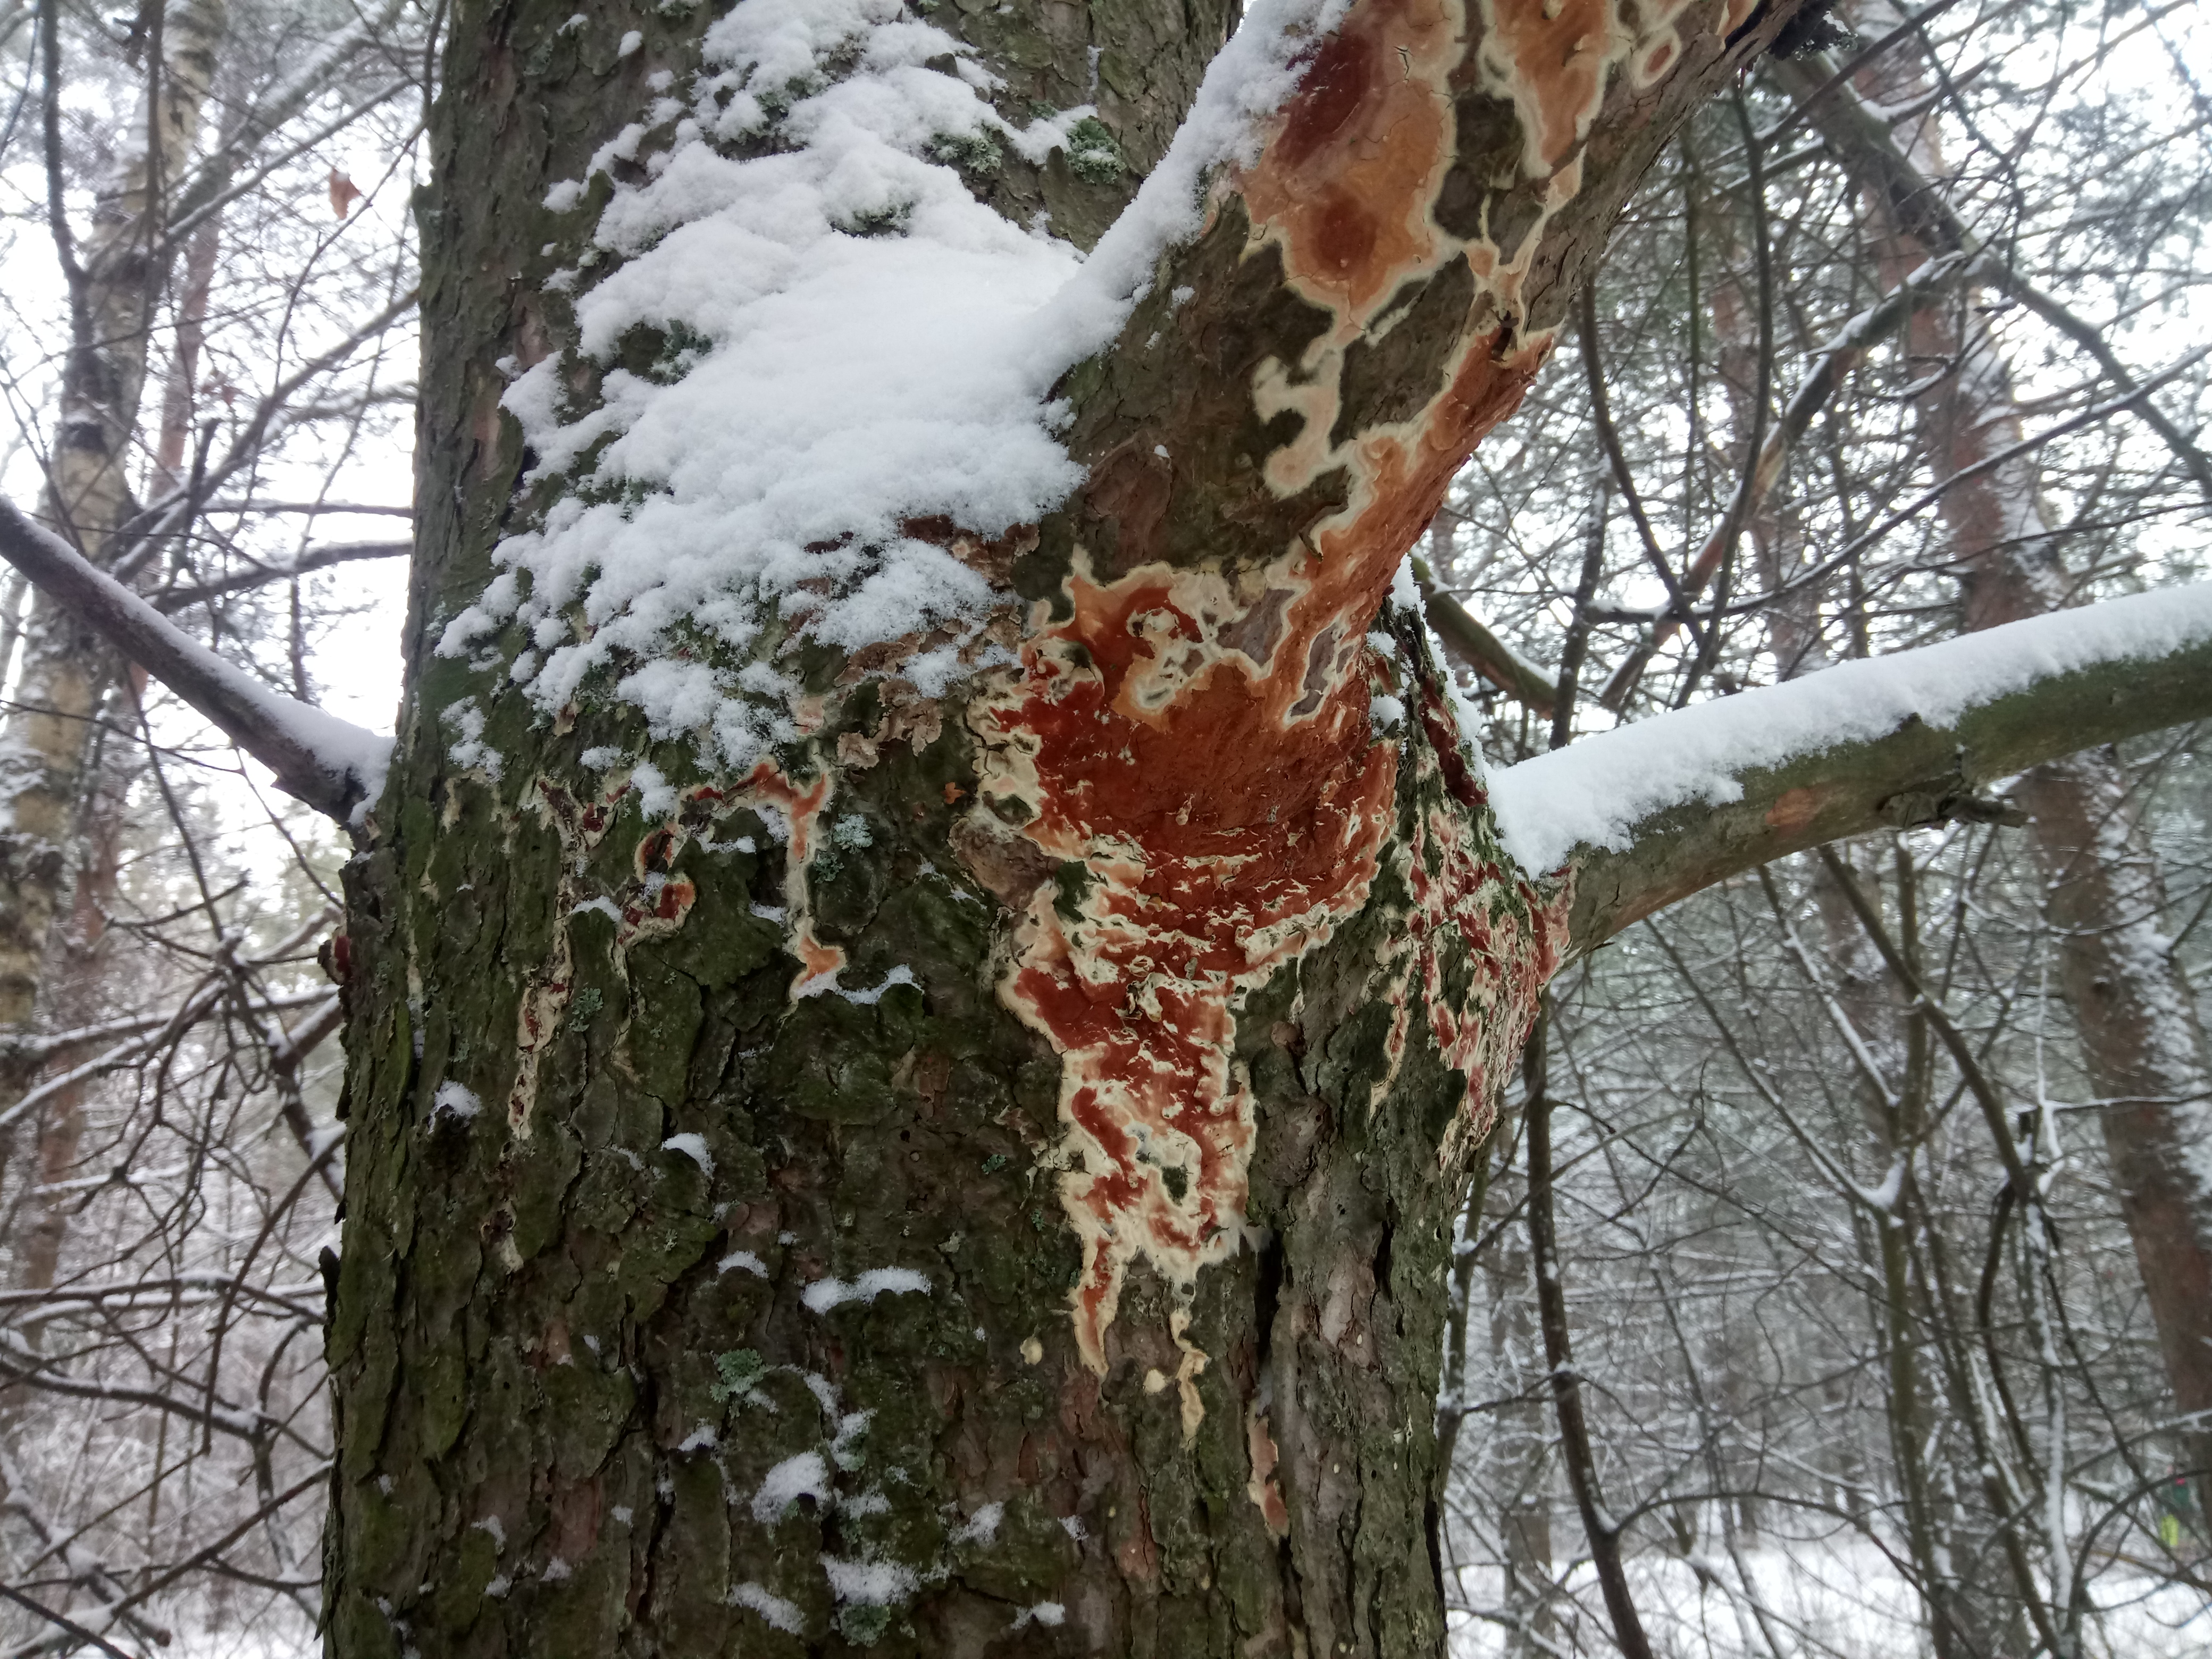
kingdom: Fungi
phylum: Basidiomycota
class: Agaricomycetes
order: Polyporales
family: Irpicaceae
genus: Meruliopsis
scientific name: Meruliopsis taxicola
